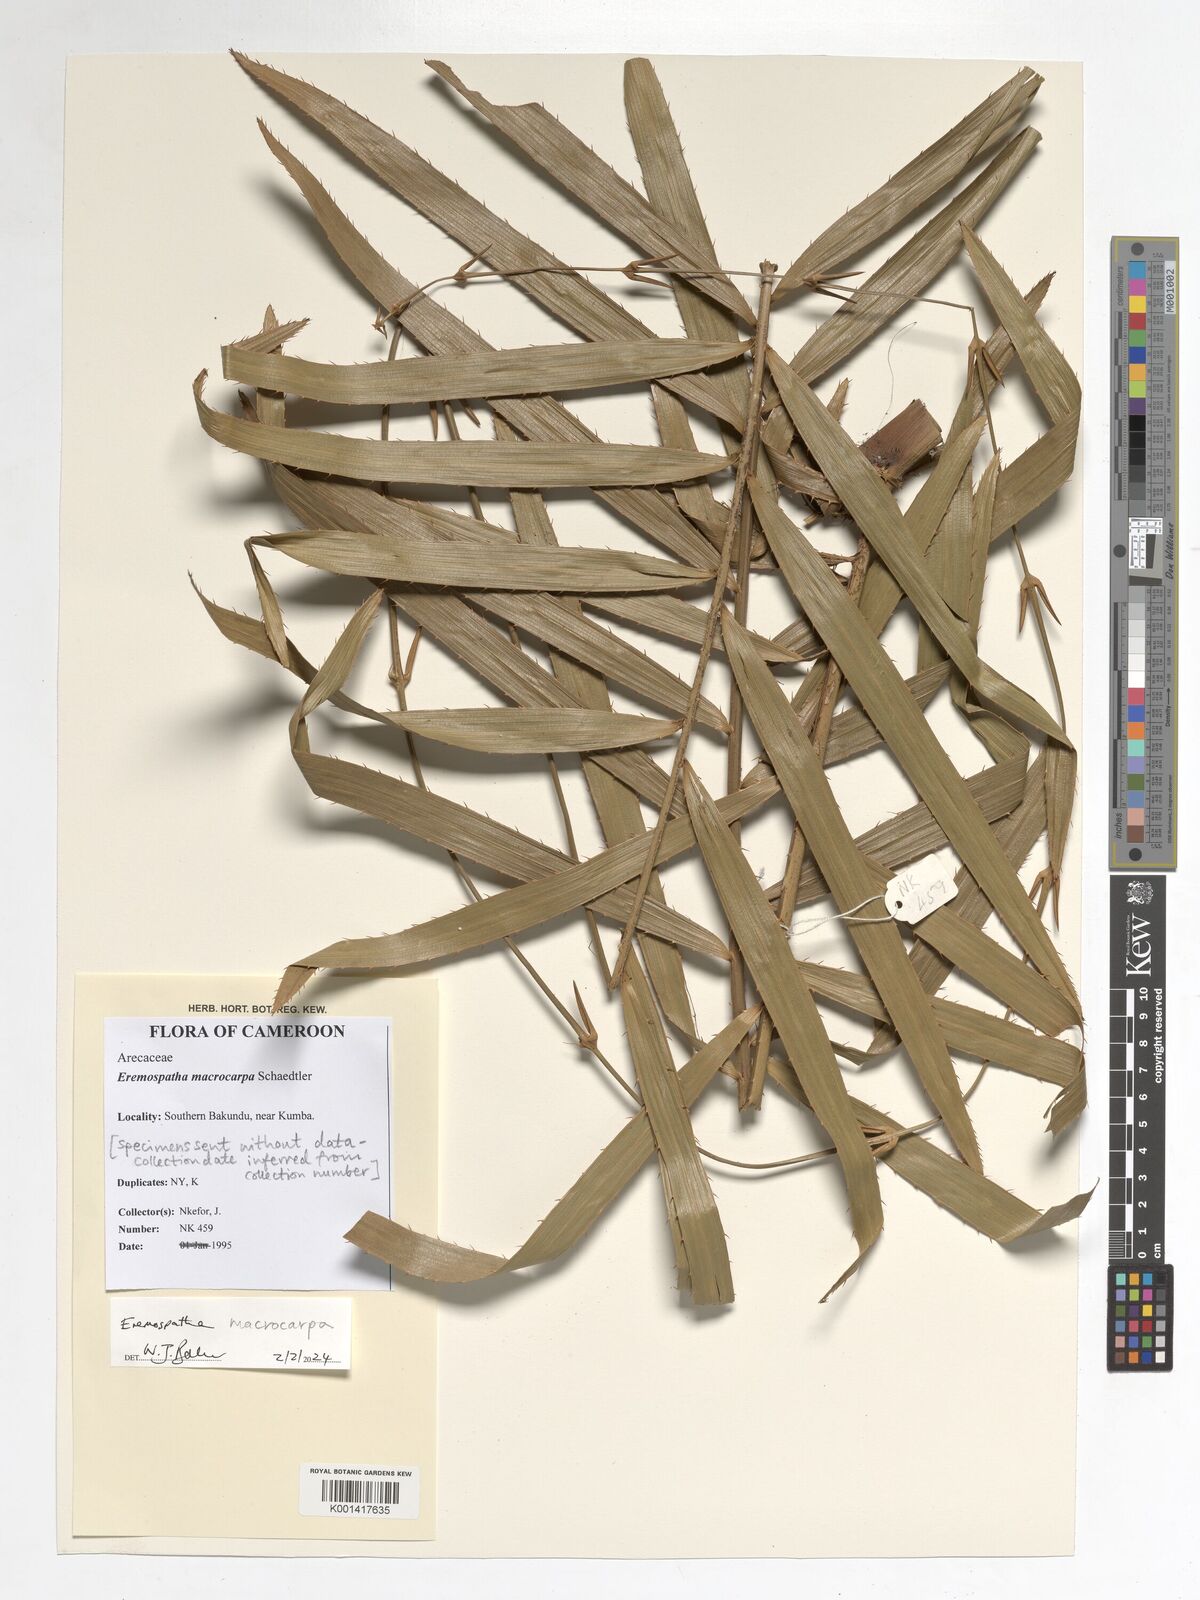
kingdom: Plantae
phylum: Tracheophyta
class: Liliopsida
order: Arecales
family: Arecaceae
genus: Eremospatha
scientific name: Eremospatha macrocarpa
